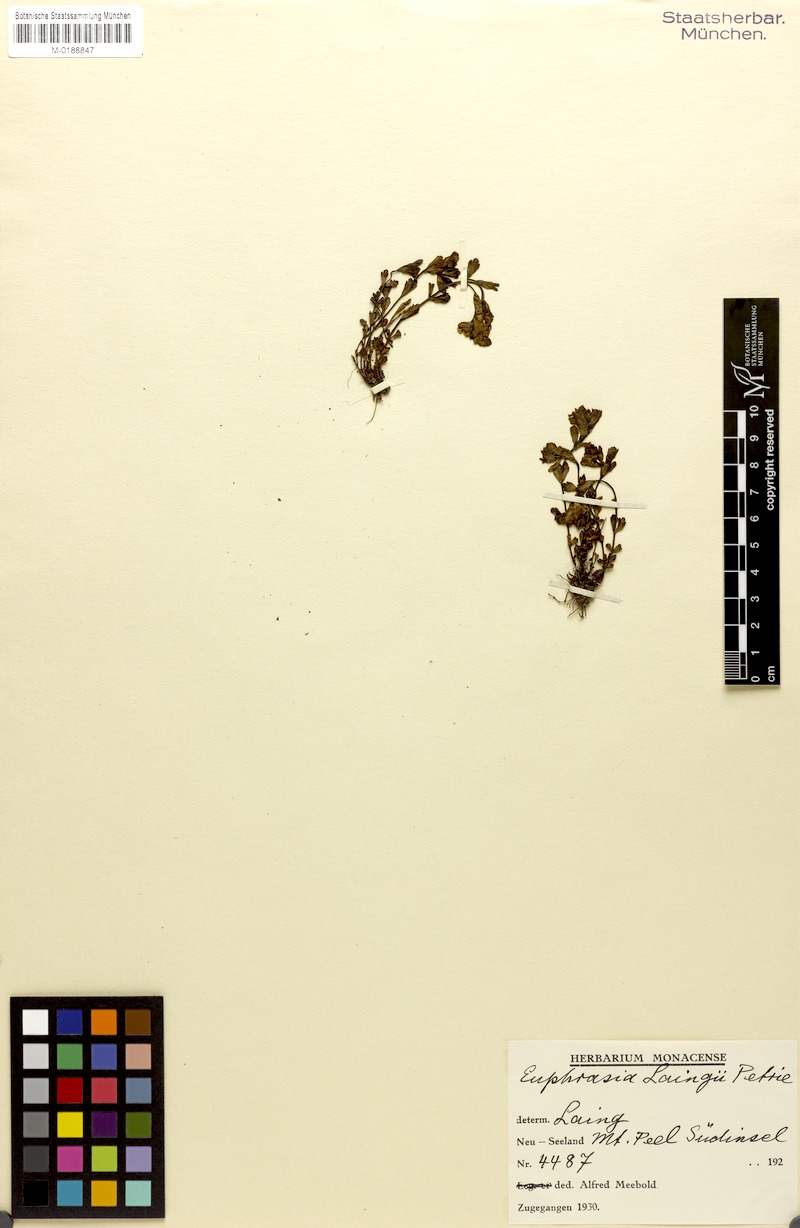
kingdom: Plantae
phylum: Tracheophyta
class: Magnoliopsida
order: Lamiales
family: Orobanchaceae
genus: Euphrasia
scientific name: Euphrasia laingii
